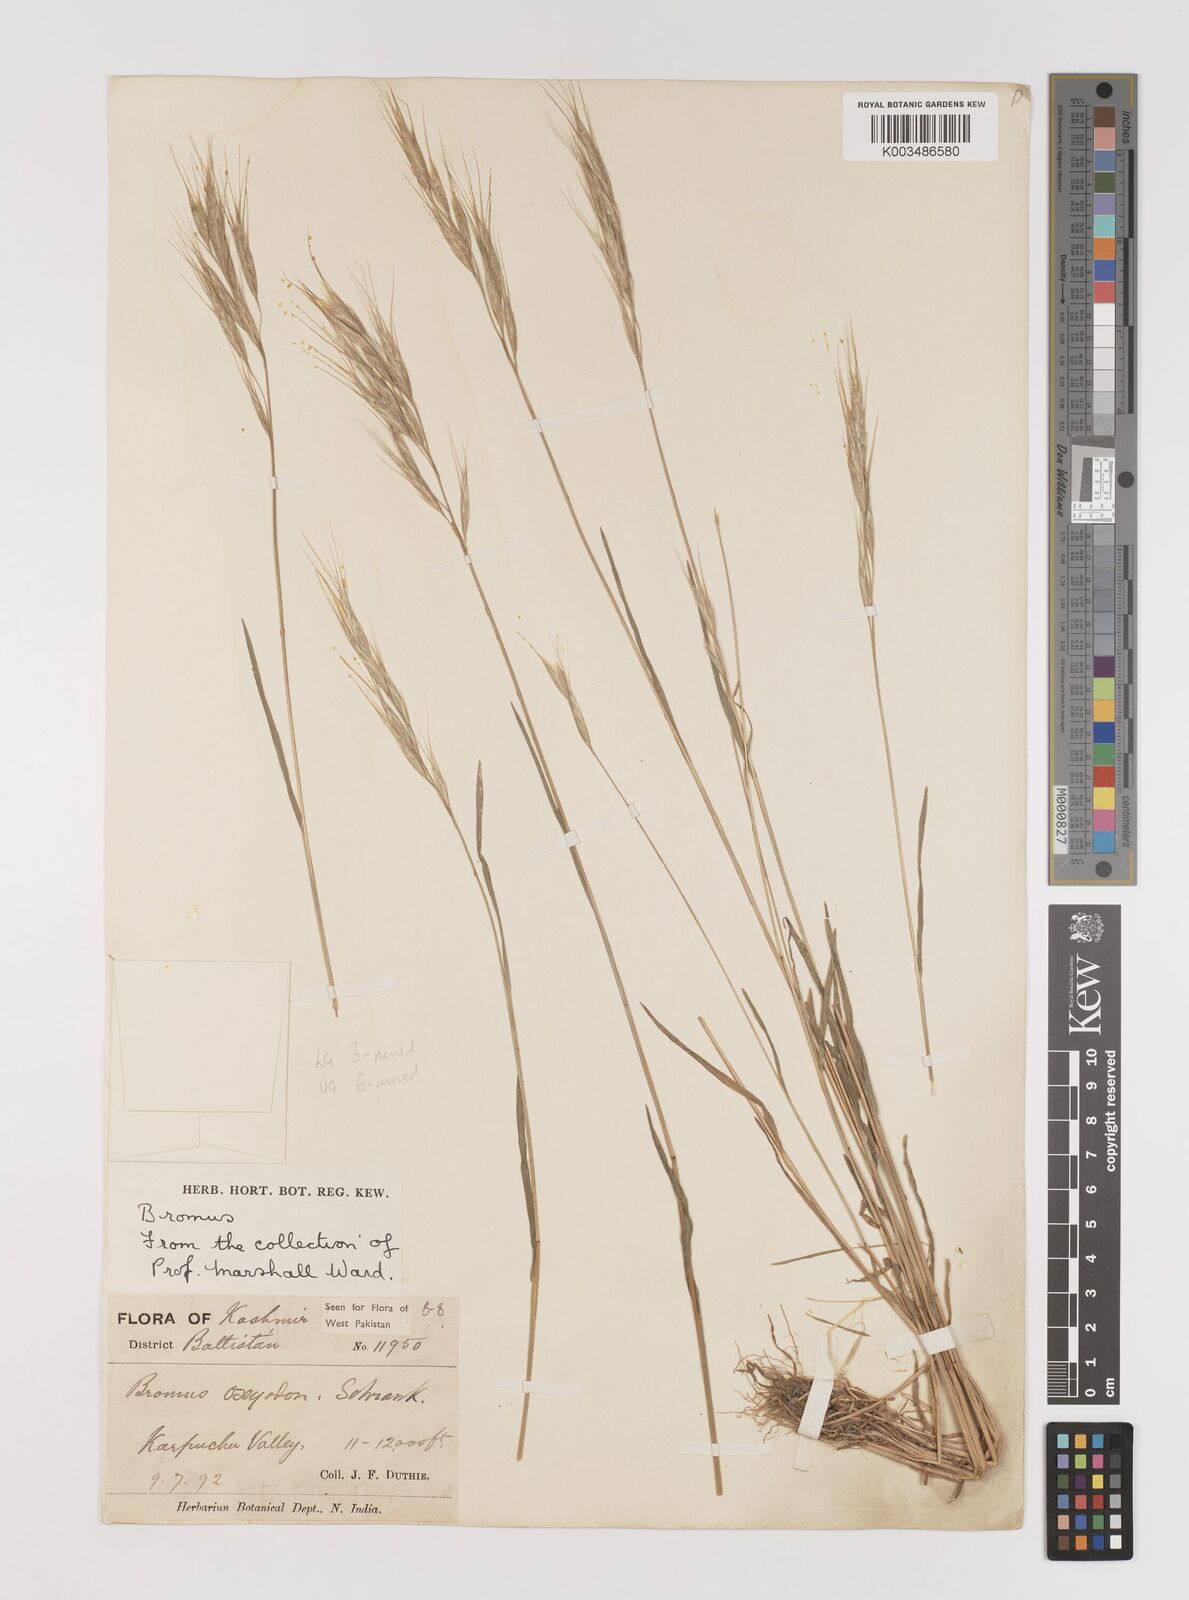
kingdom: Plantae
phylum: Tracheophyta
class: Liliopsida
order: Poales
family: Poaceae
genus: Bromus
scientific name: Bromus oxyodon
